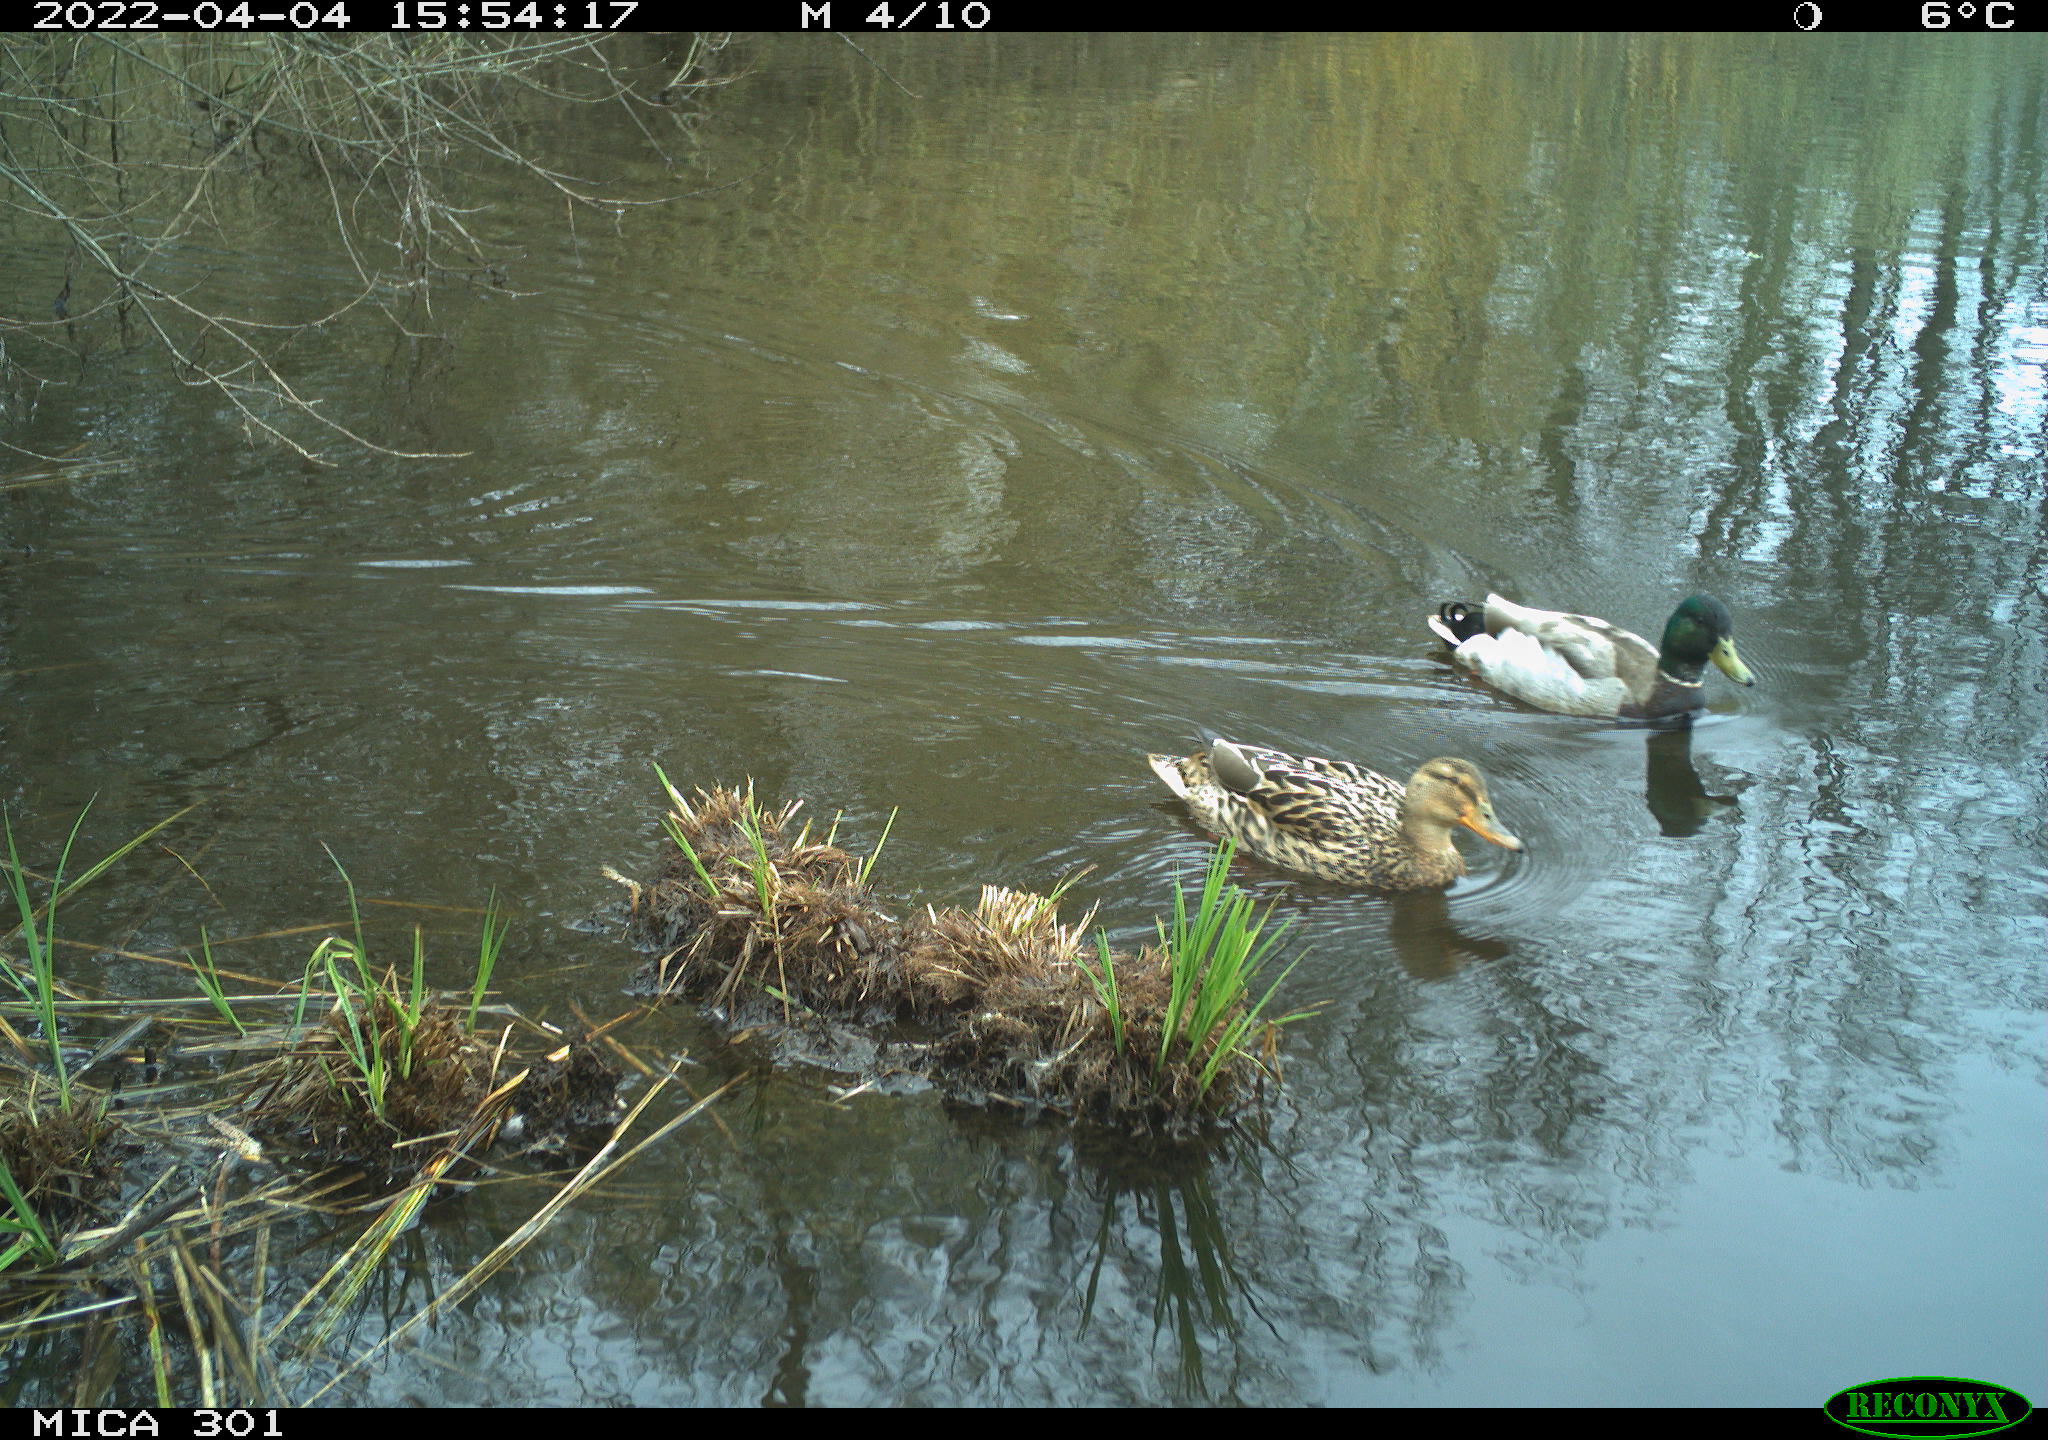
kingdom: Animalia
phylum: Chordata
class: Aves
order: Anseriformes
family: Anatidae
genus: Anas
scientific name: Anas platyrhynchos
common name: Mallard
